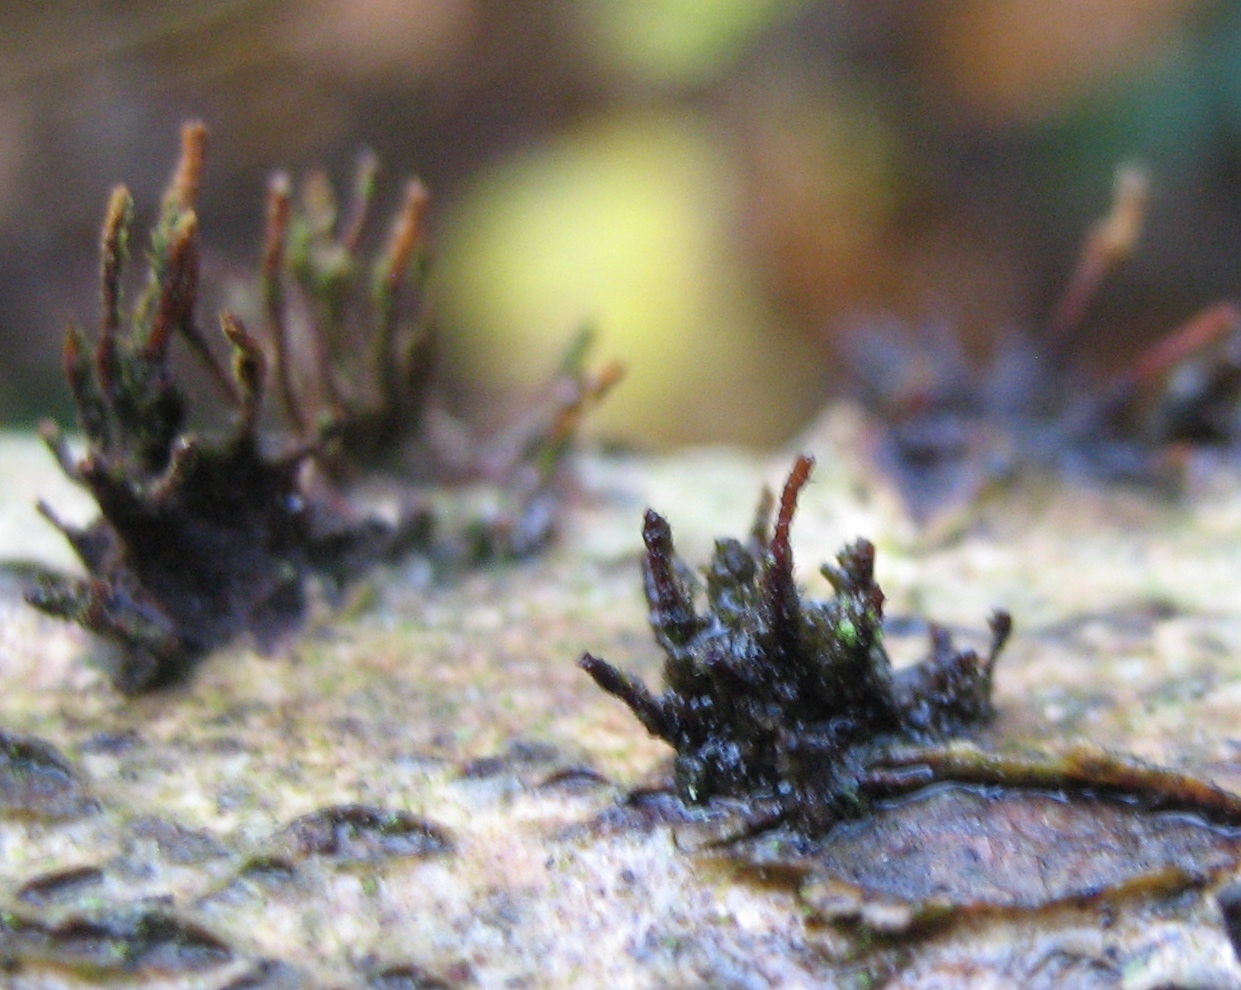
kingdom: Fungi
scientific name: Fungi
